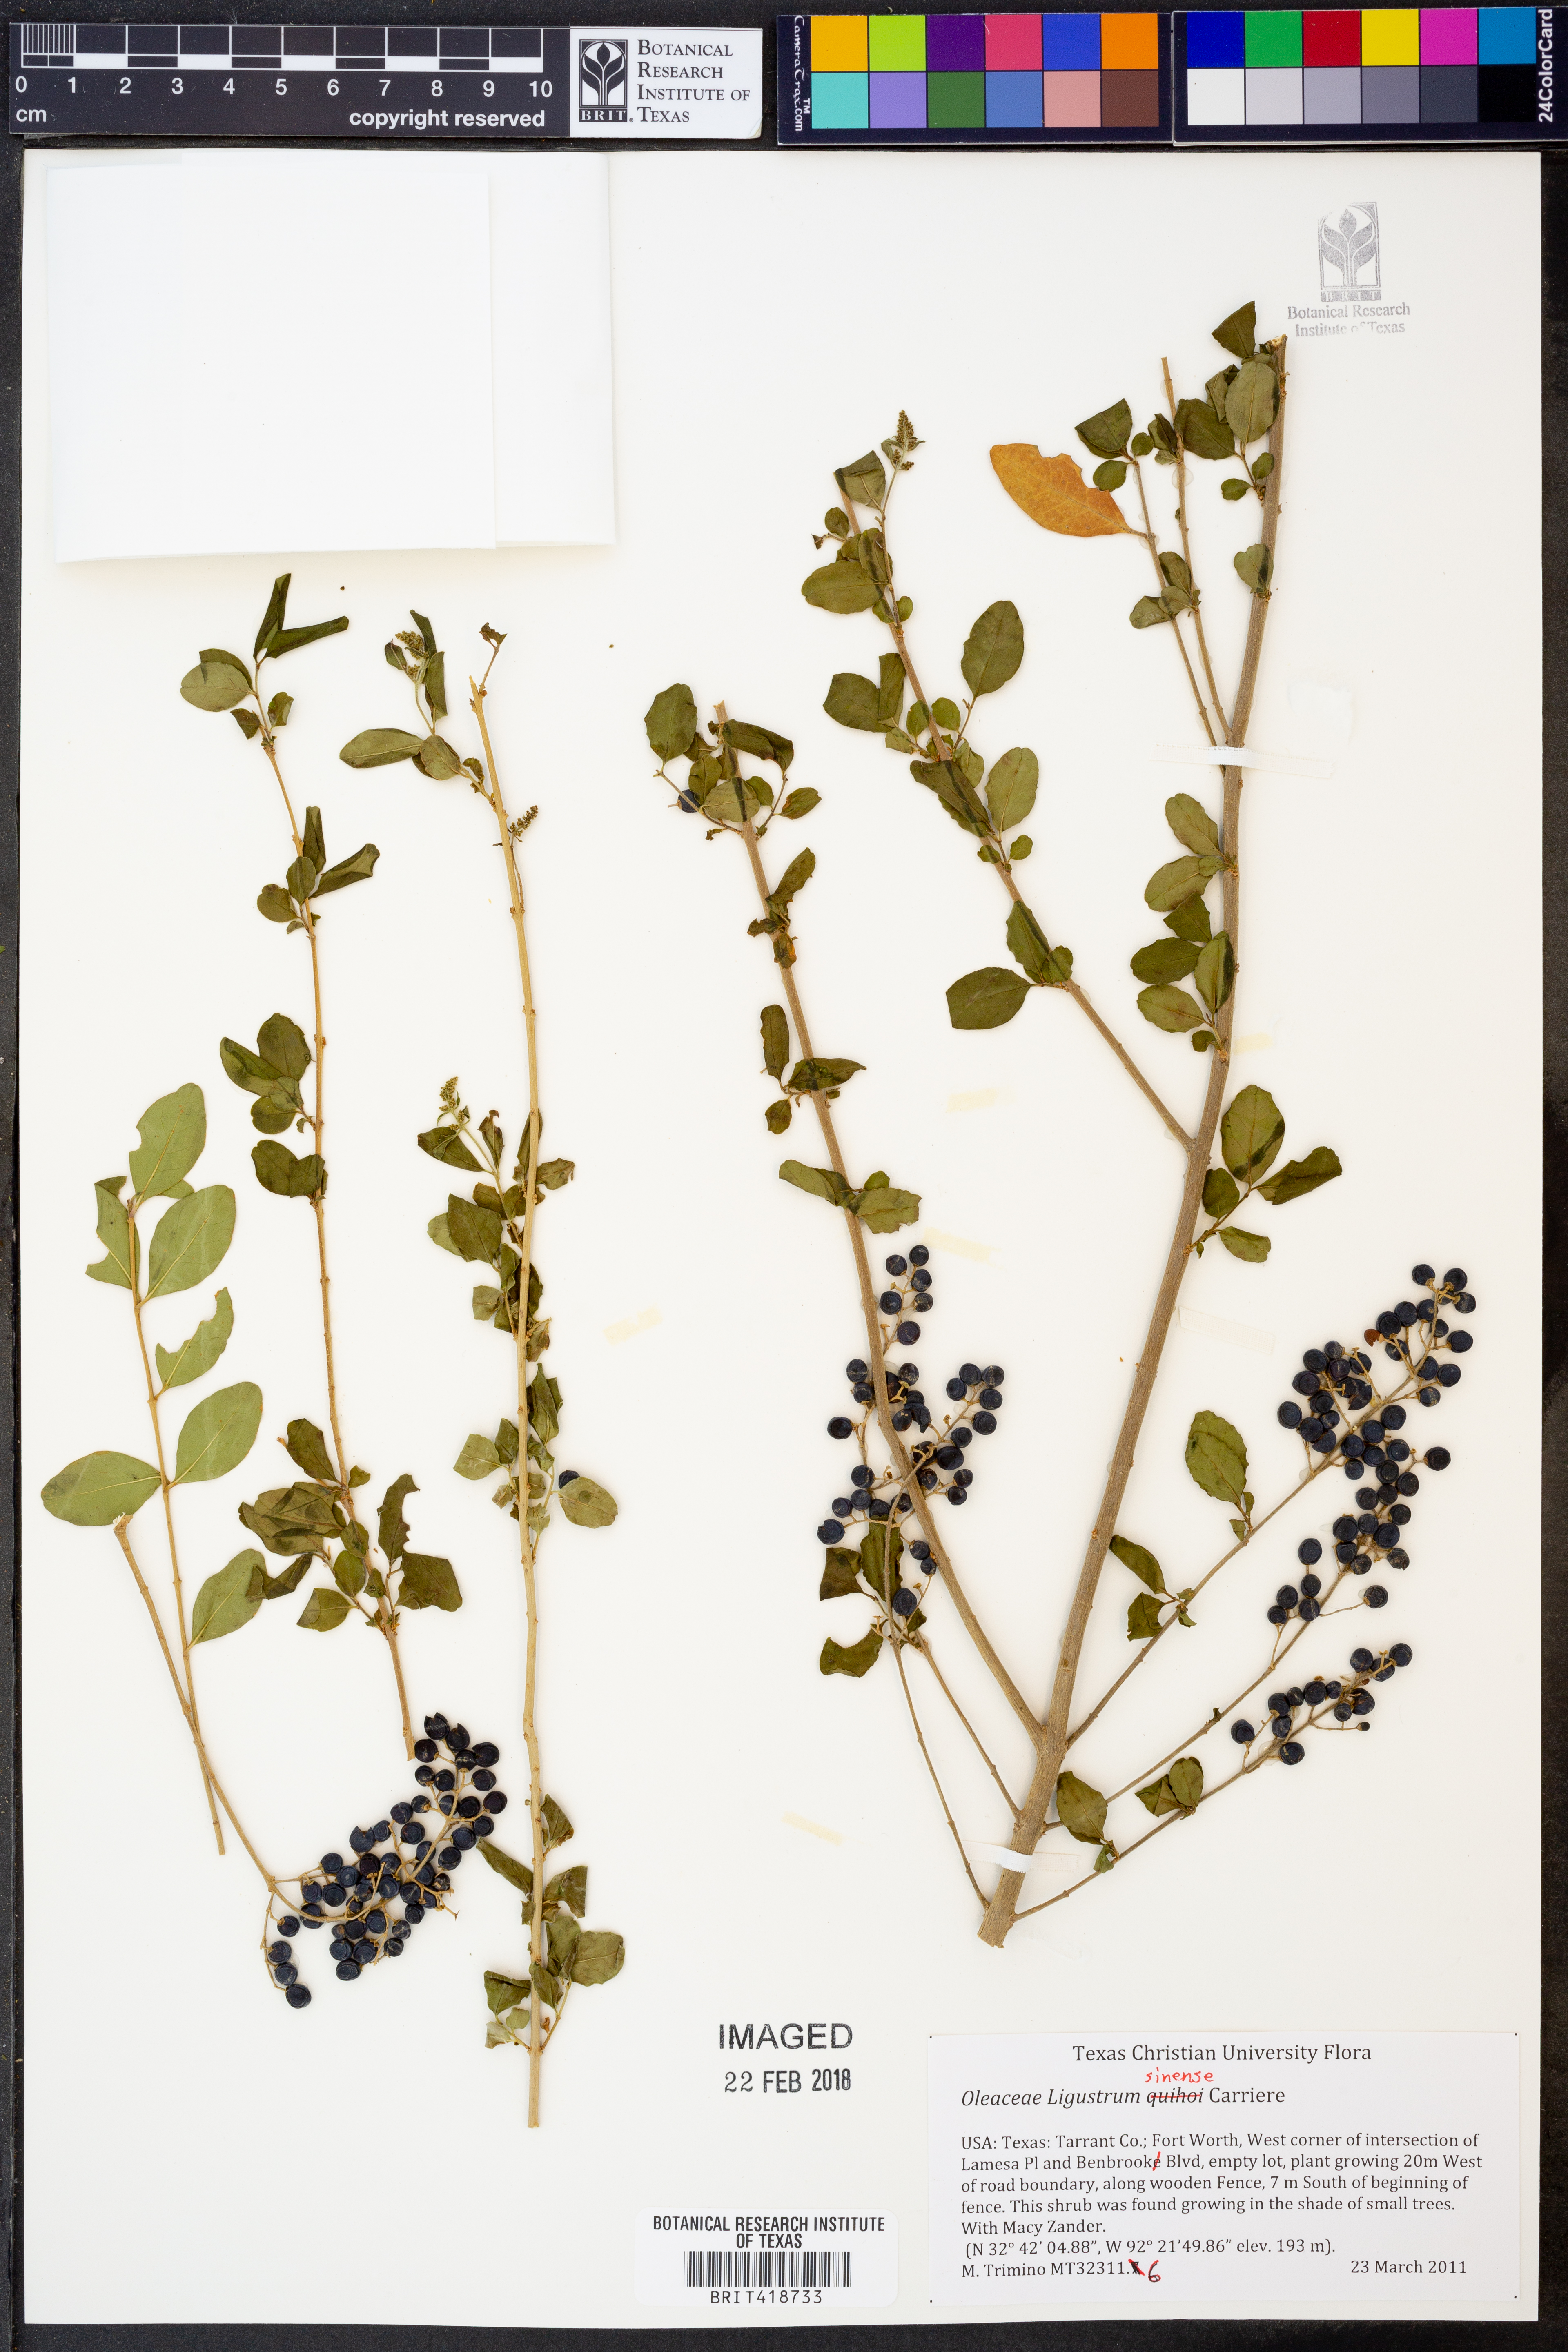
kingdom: Plantae
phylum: Tracheophyta
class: Magnoliopsida
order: Lamiales
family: Oleaceae
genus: Ligustrum
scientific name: Ligustrum sinense
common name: Chinese privet
